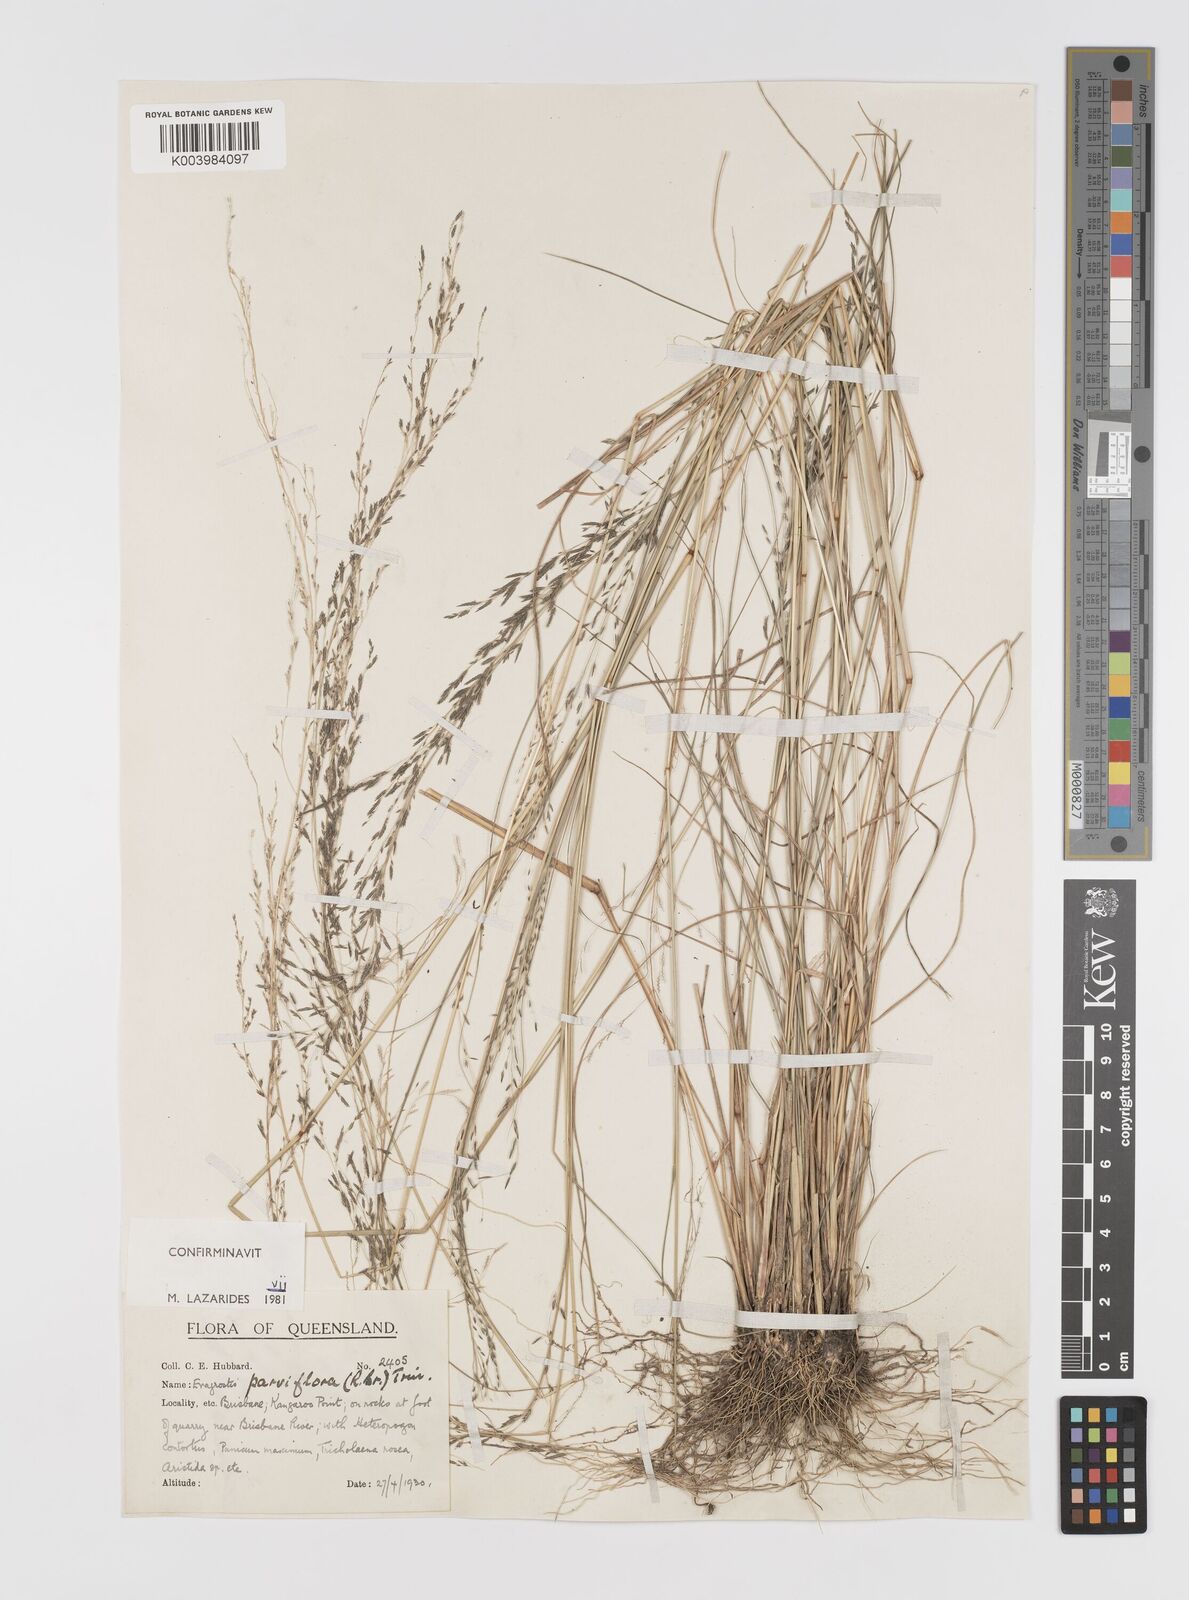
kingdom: Plantae
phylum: Tracheophyta
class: Liliopsida
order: Poales
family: Poaceae
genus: Eragrostis
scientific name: Eragrostis parviflora
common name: Weeping love-grass
